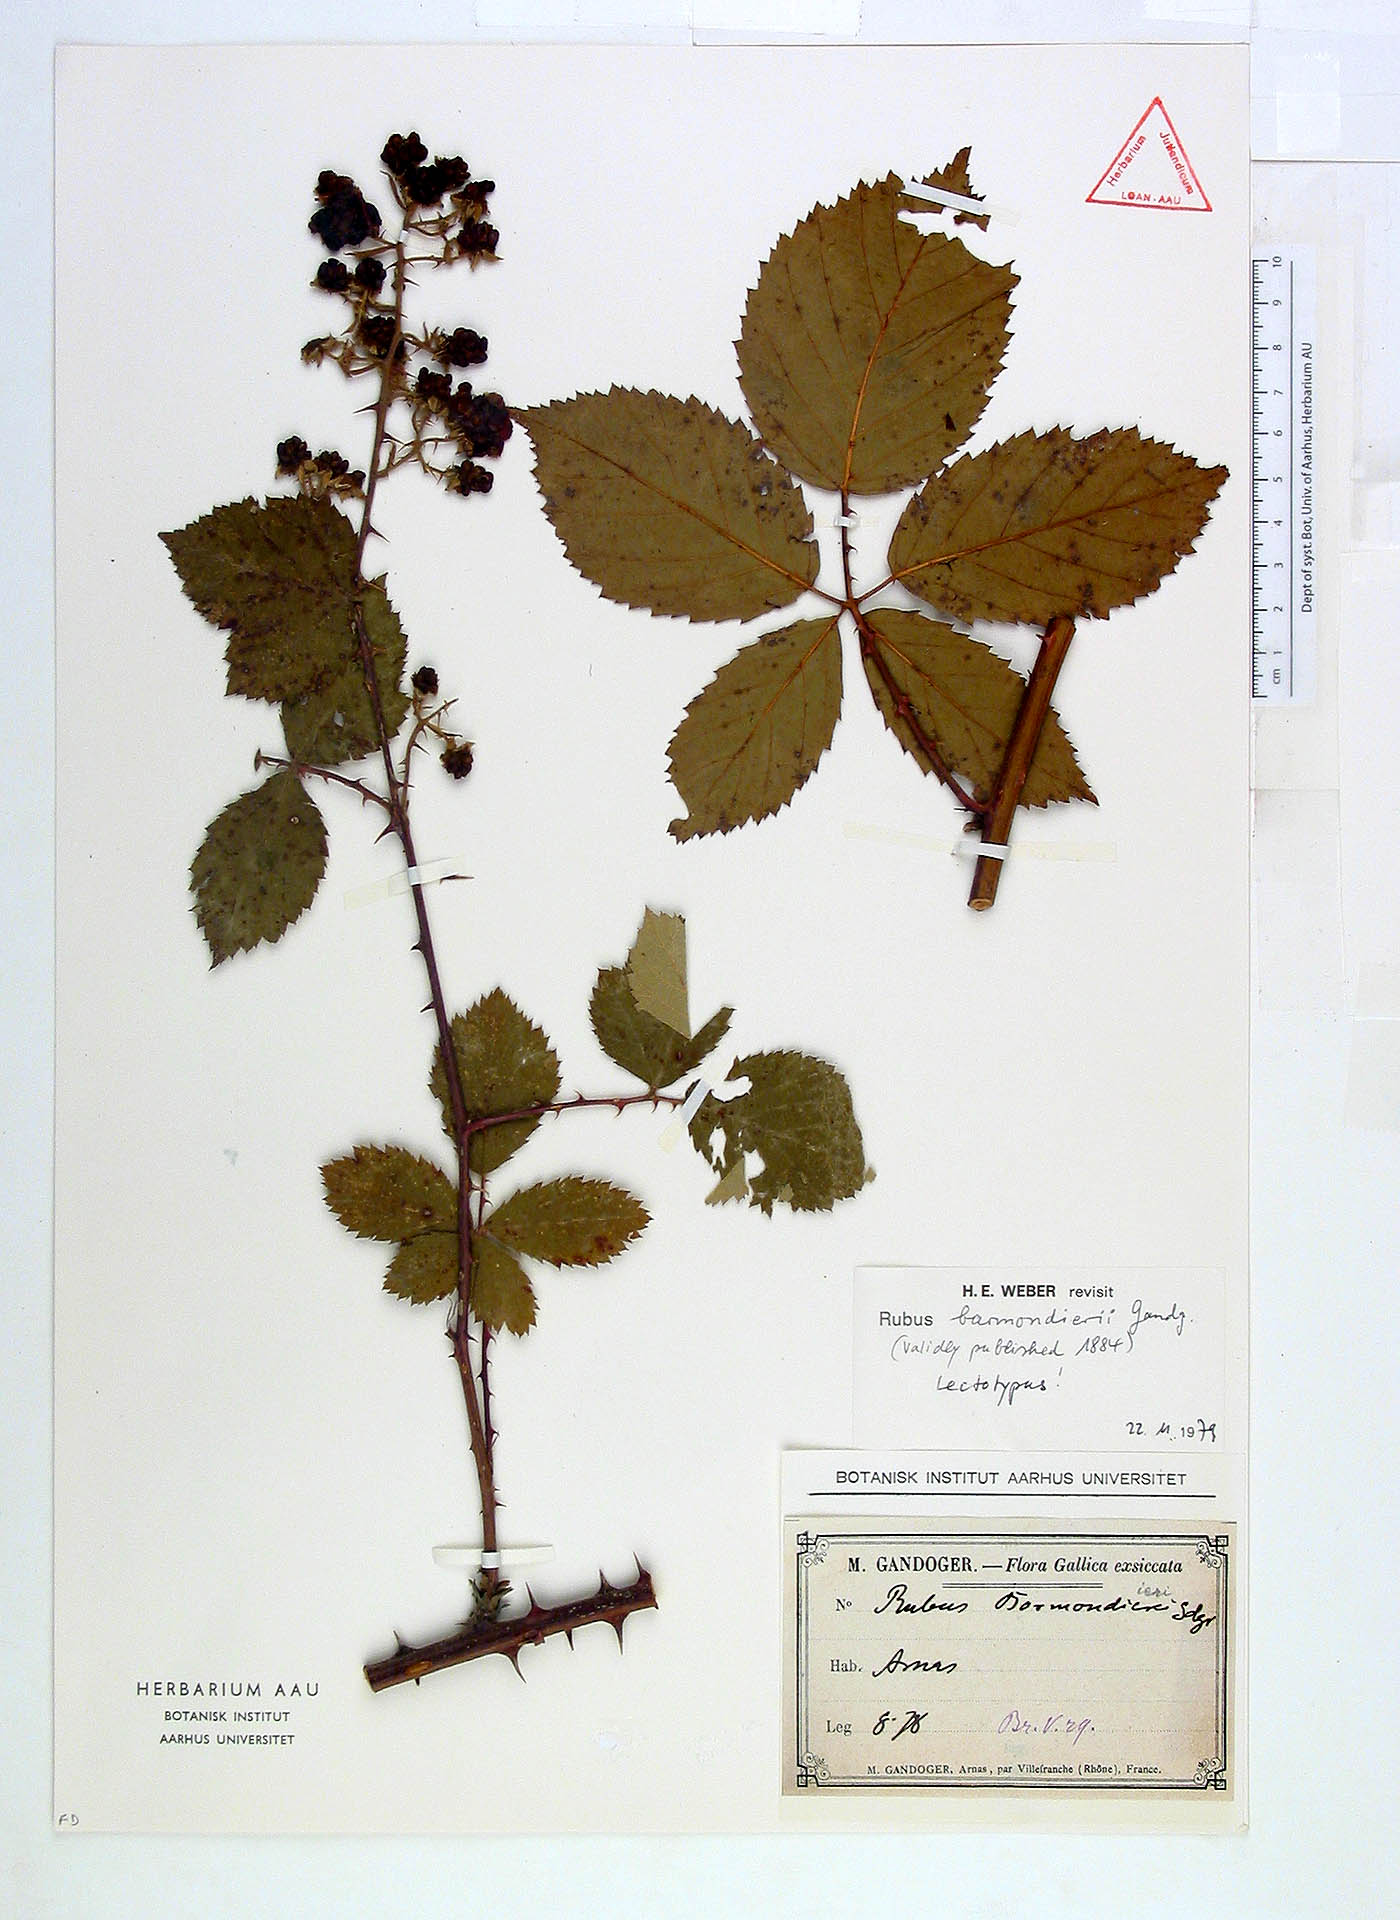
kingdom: Plantae
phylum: Tracheophyta
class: Magnoliopsida
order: Rosales
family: Rosaceae
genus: Rubus
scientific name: Rubus barmondierei
